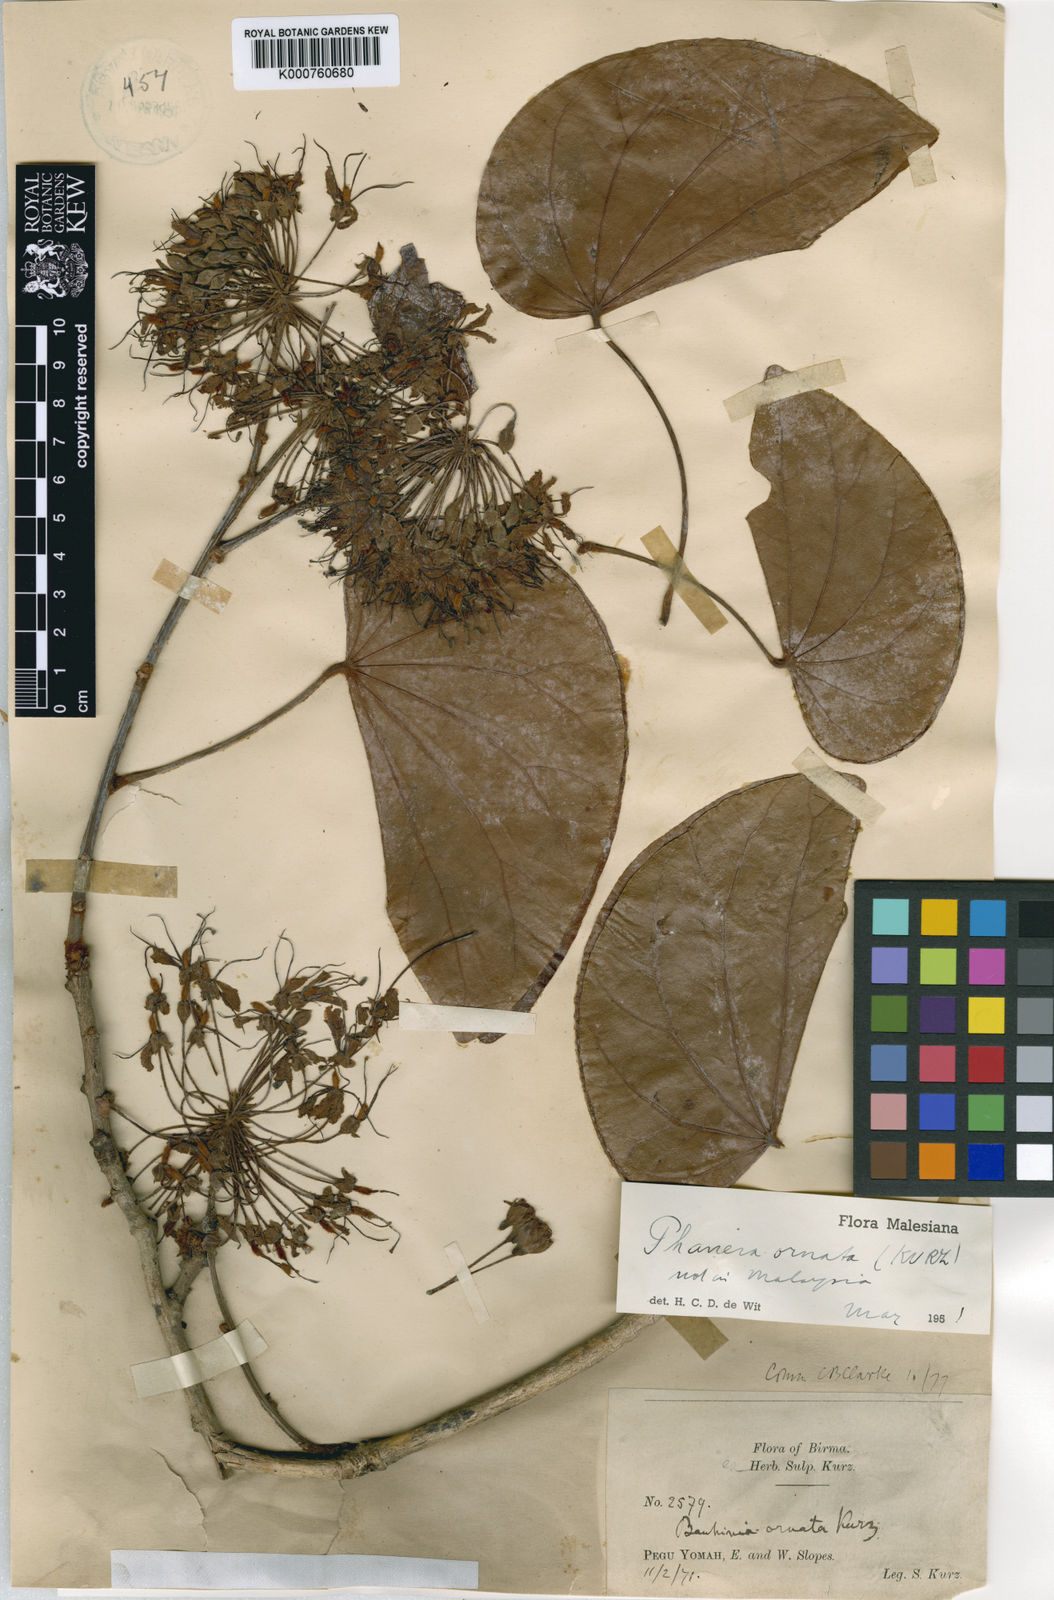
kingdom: Plantae
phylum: Tracheophyta
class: Magnoliopsida
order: Fabales
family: Fabaceae
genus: Phanera
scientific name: Phanera ornata
